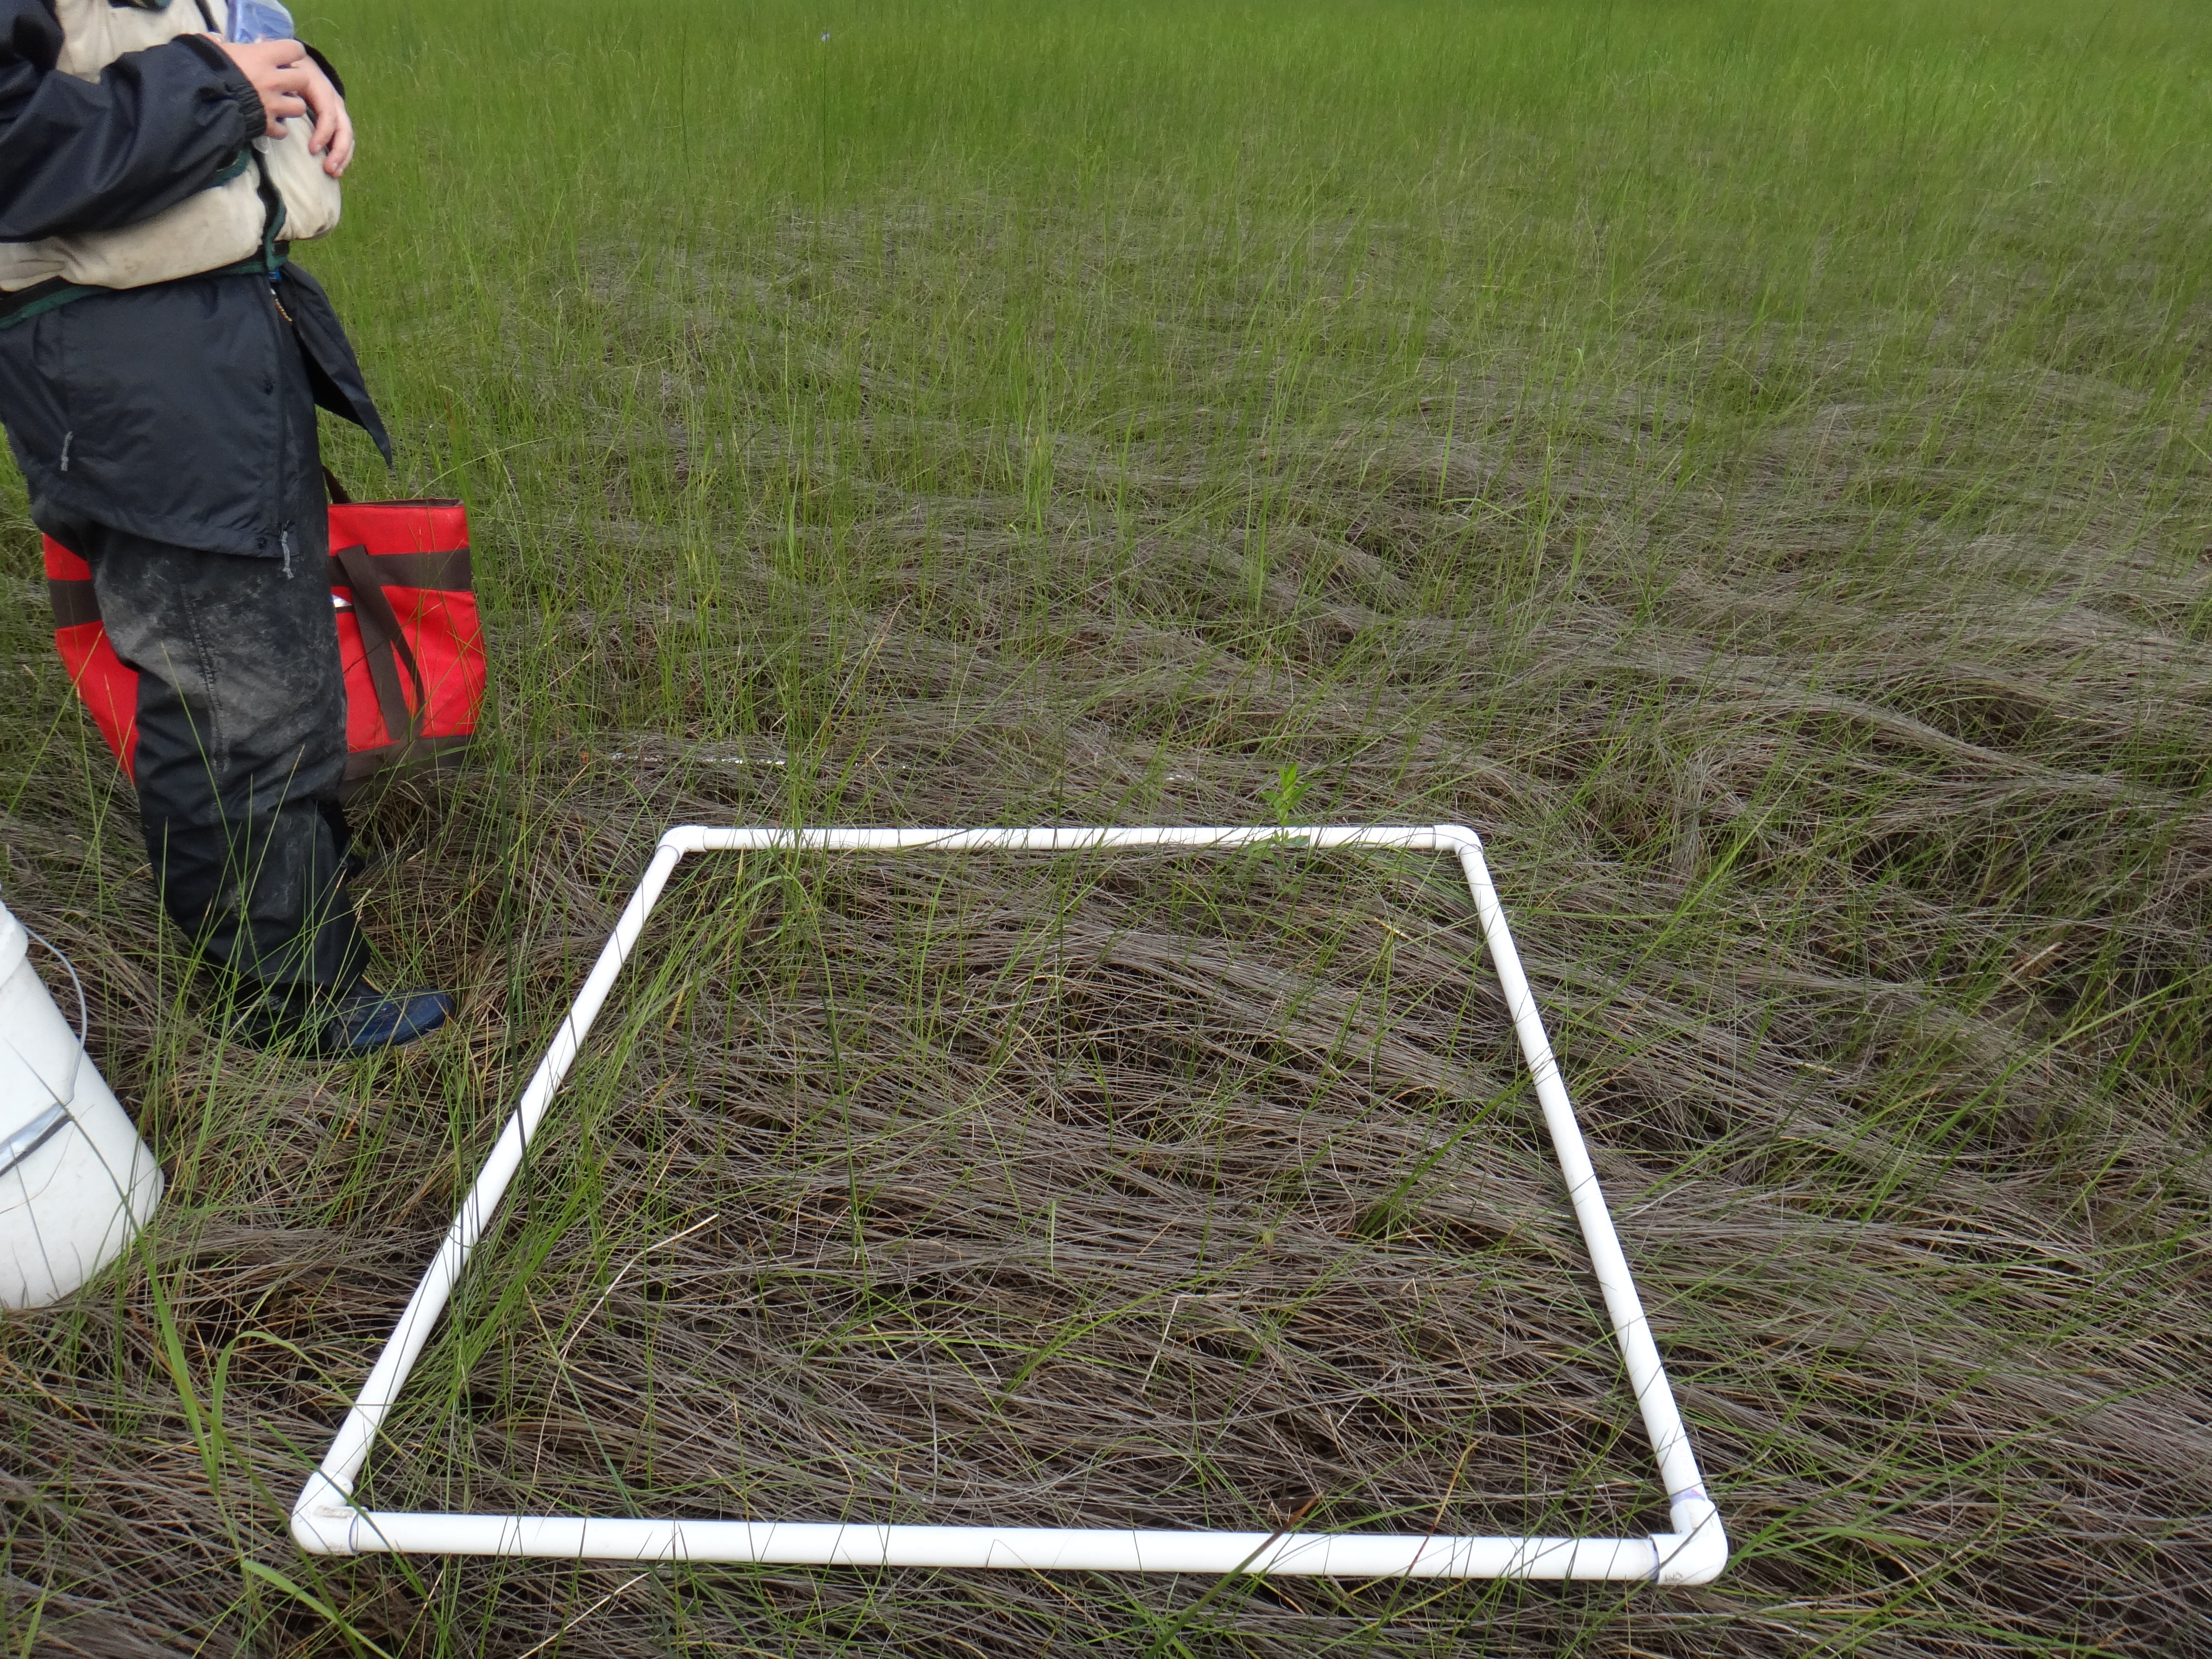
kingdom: Plantae
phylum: Tracheophyta
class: Liliopsida
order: Poales
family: Cyperaceae
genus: Schoenoplectus
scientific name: Schoenoplectus tabernaemontani
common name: Grey club-rush
